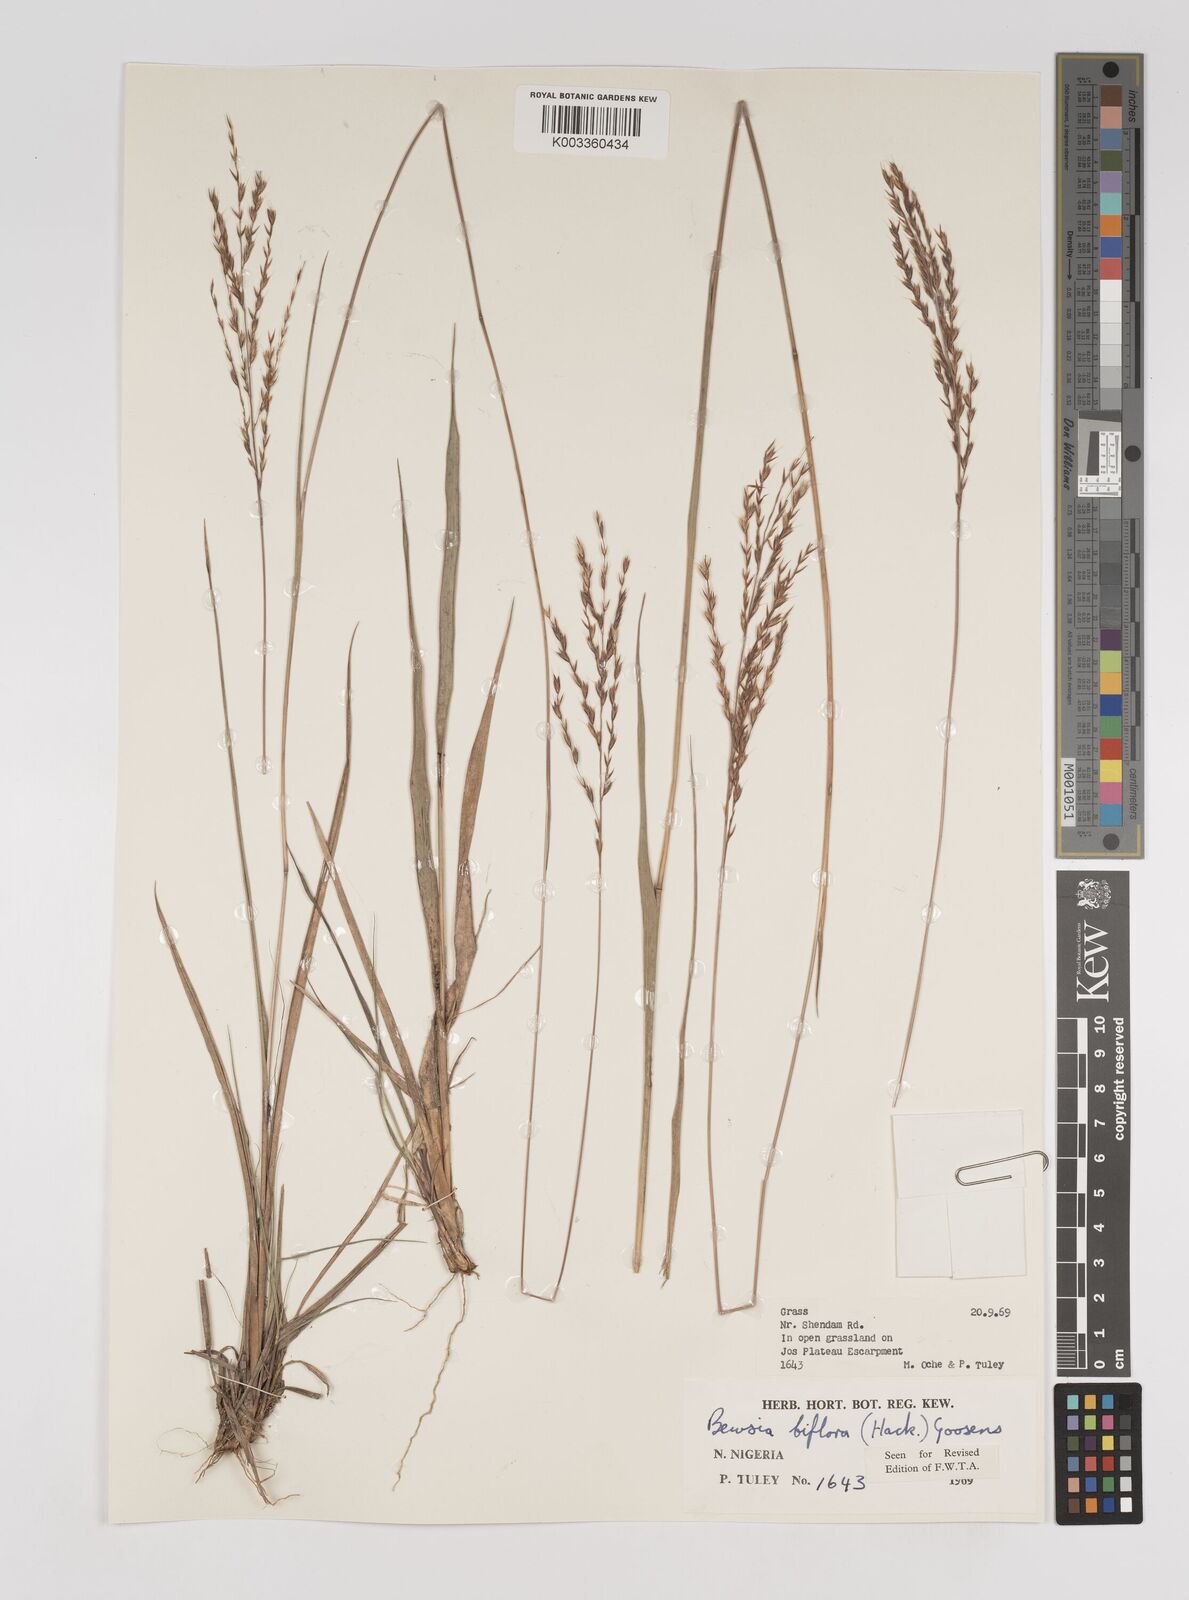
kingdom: Plantae
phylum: Tracheophyta
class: Liliopsida
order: Poales
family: Poaceae
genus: Bewsia
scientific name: Bewsia biflora
